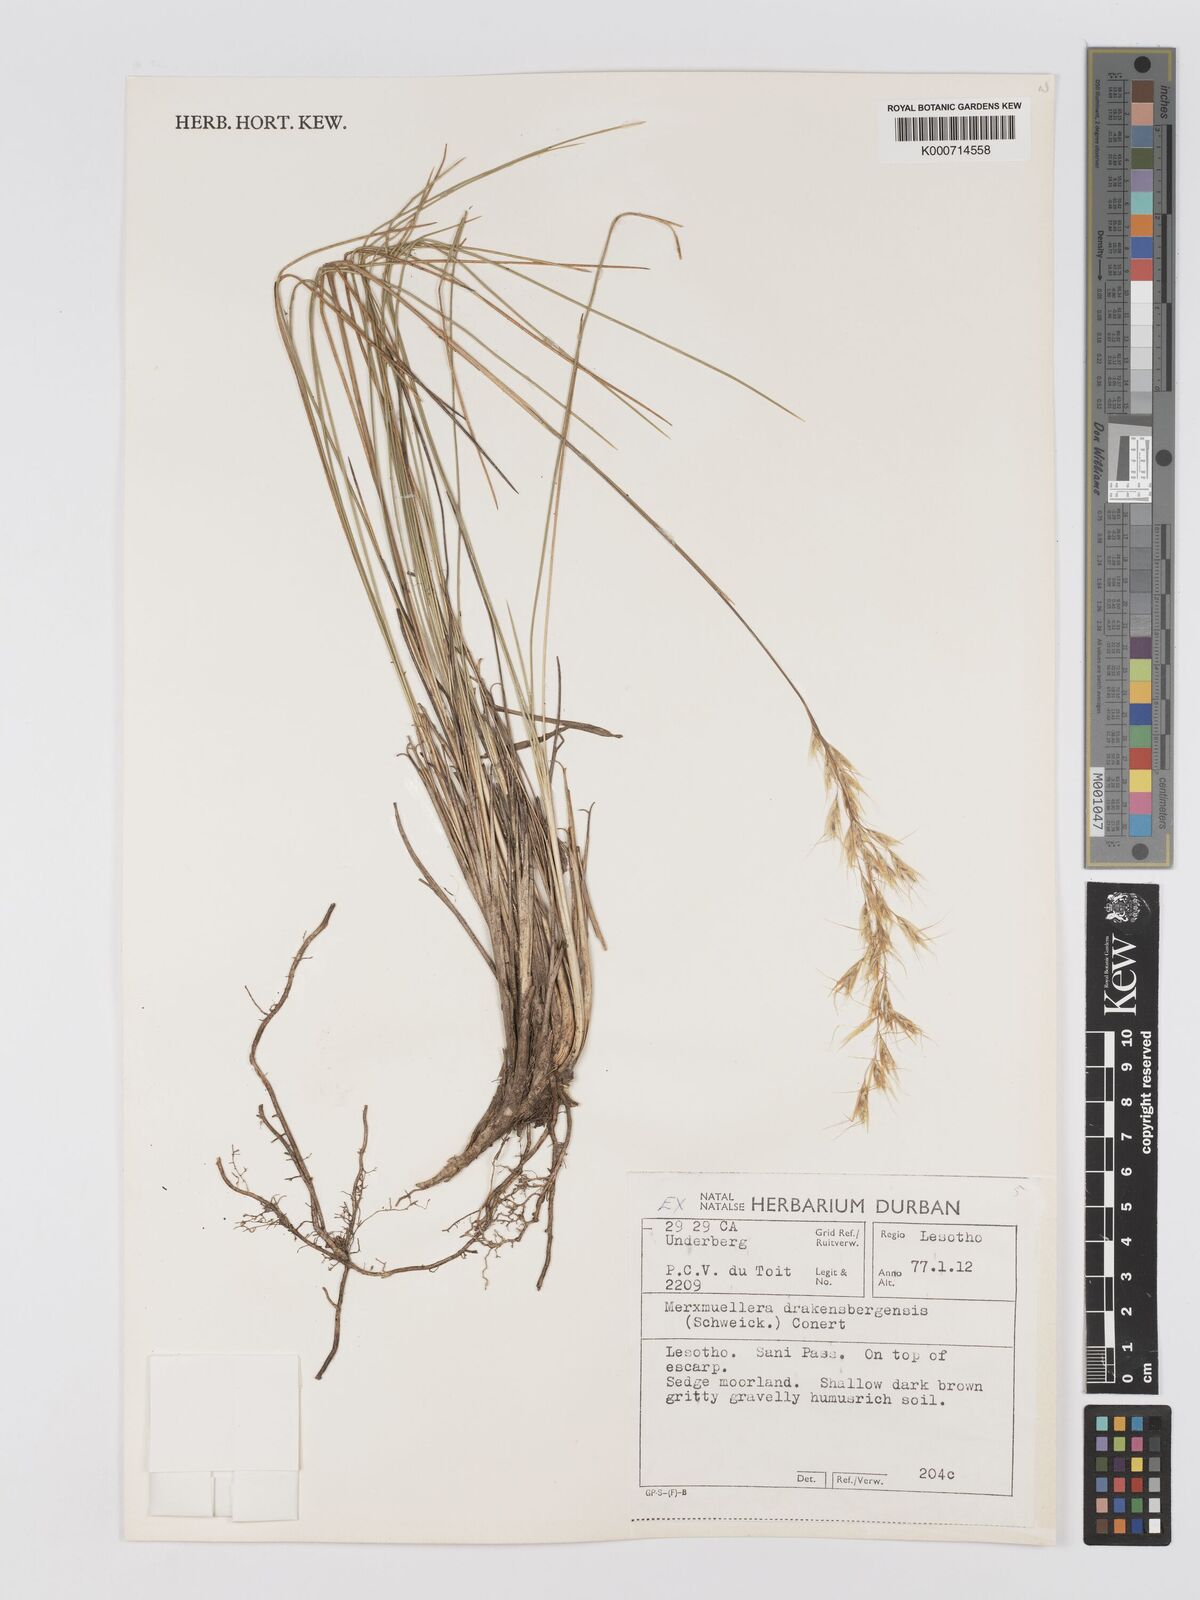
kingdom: Plantae
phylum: Tracheophyta
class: Liliopsida
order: Poales
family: Poaceae
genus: Rytidosperma
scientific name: Rytidosperma
